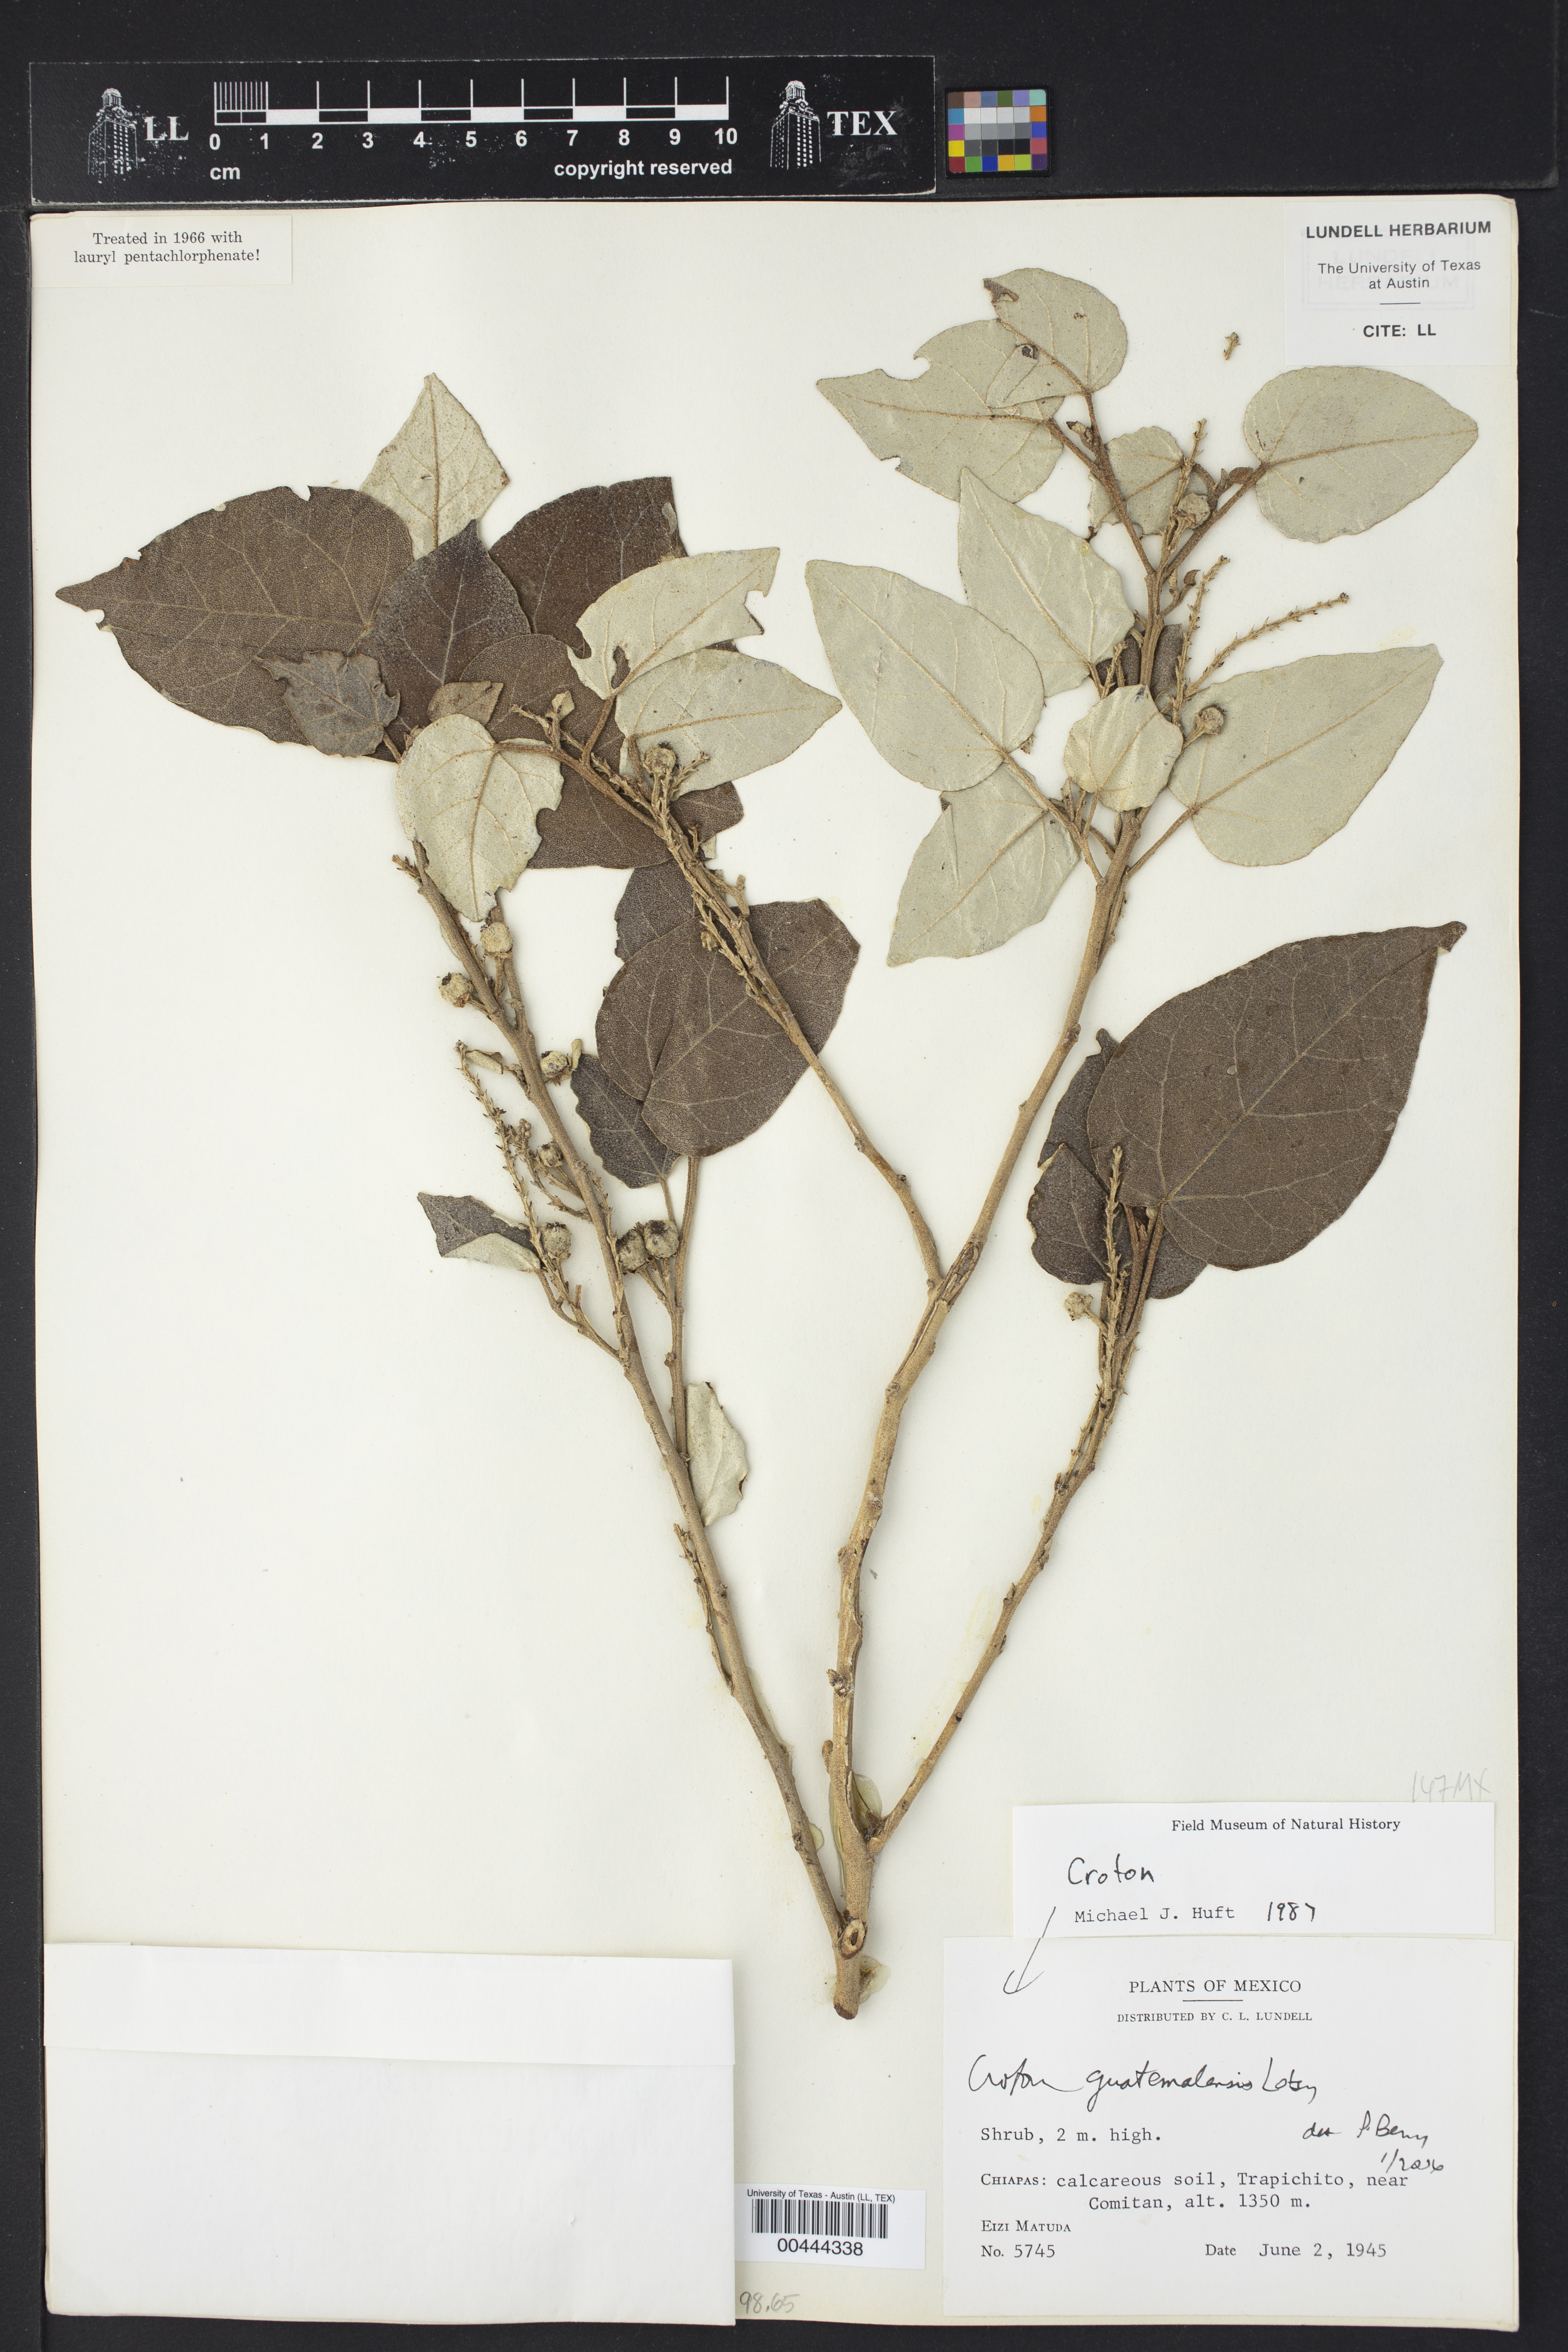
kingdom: Plantae
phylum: Tracheophyta
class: Magnoliopsida
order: Malpighiales
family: Euphorbiaceae
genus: Croton
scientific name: Croton guatemalensis
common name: Copalchi
